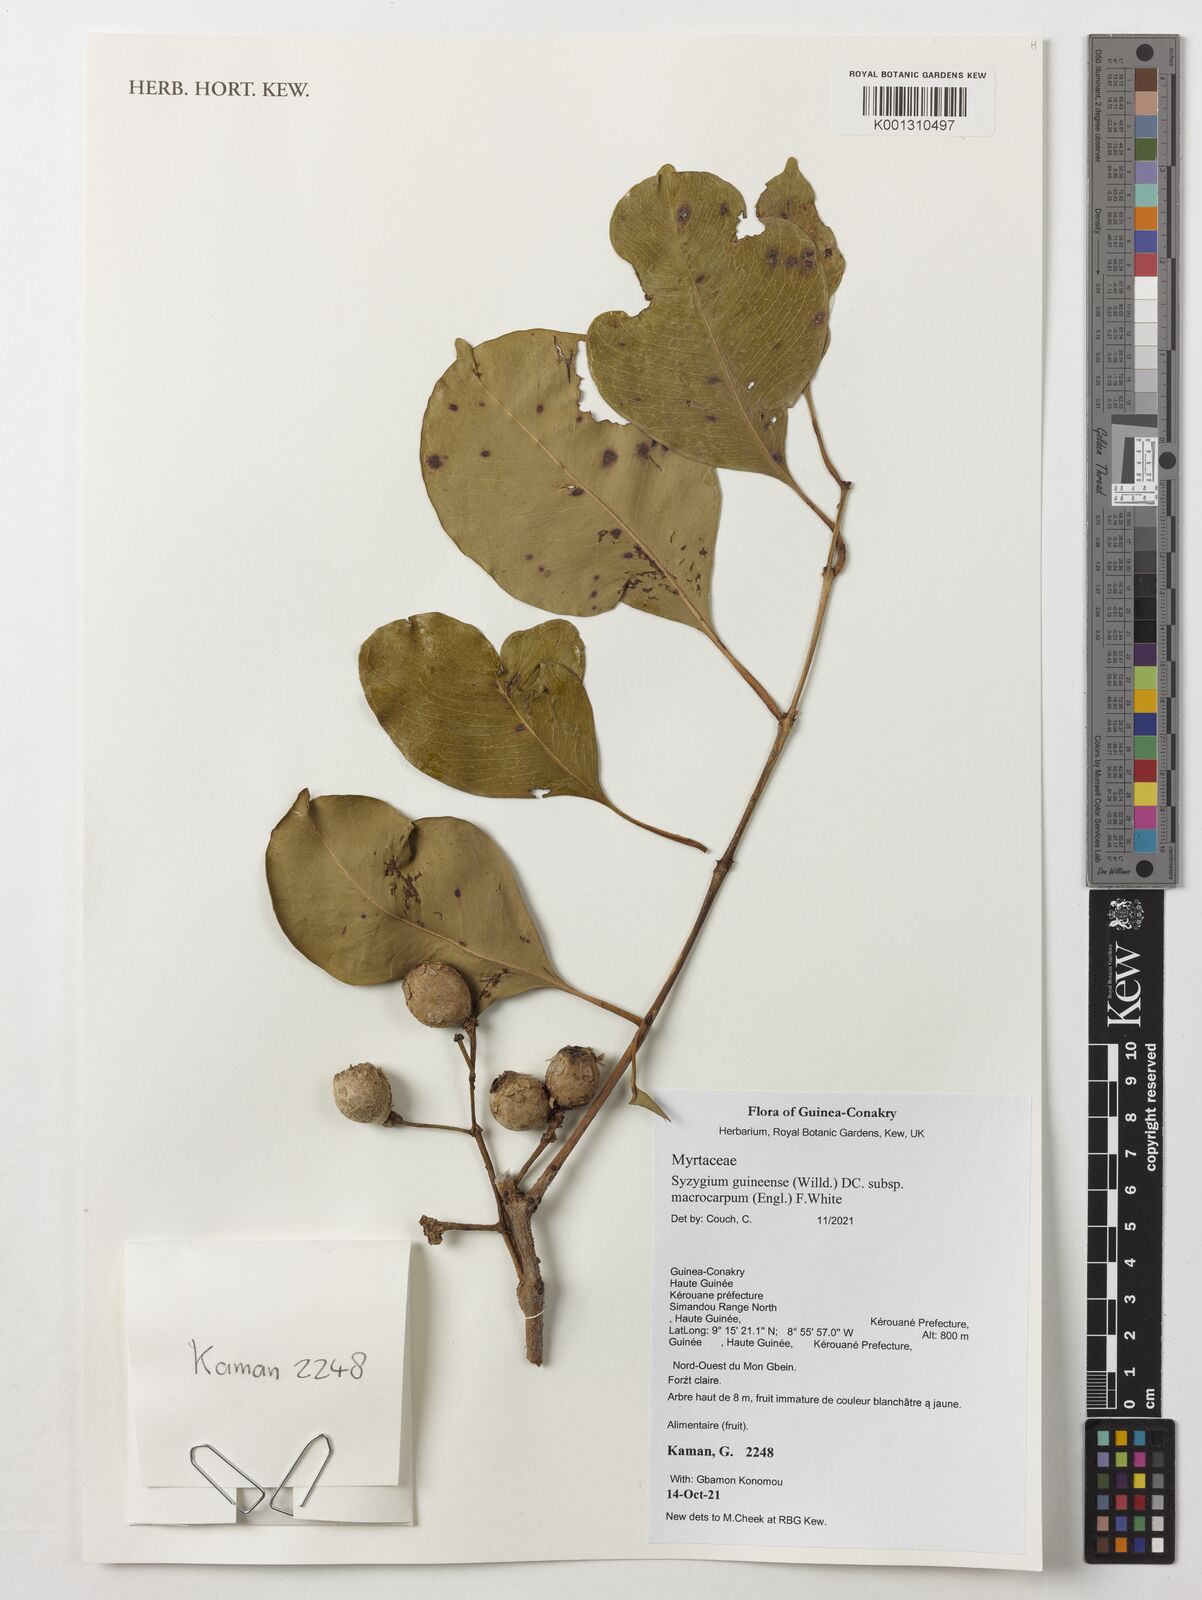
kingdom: Plantae
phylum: Tracheophyta
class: Magnoliopsida
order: Myrtales
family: Myrtaceae
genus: Syzygium
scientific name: Syzygium guineense
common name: Water-pear
